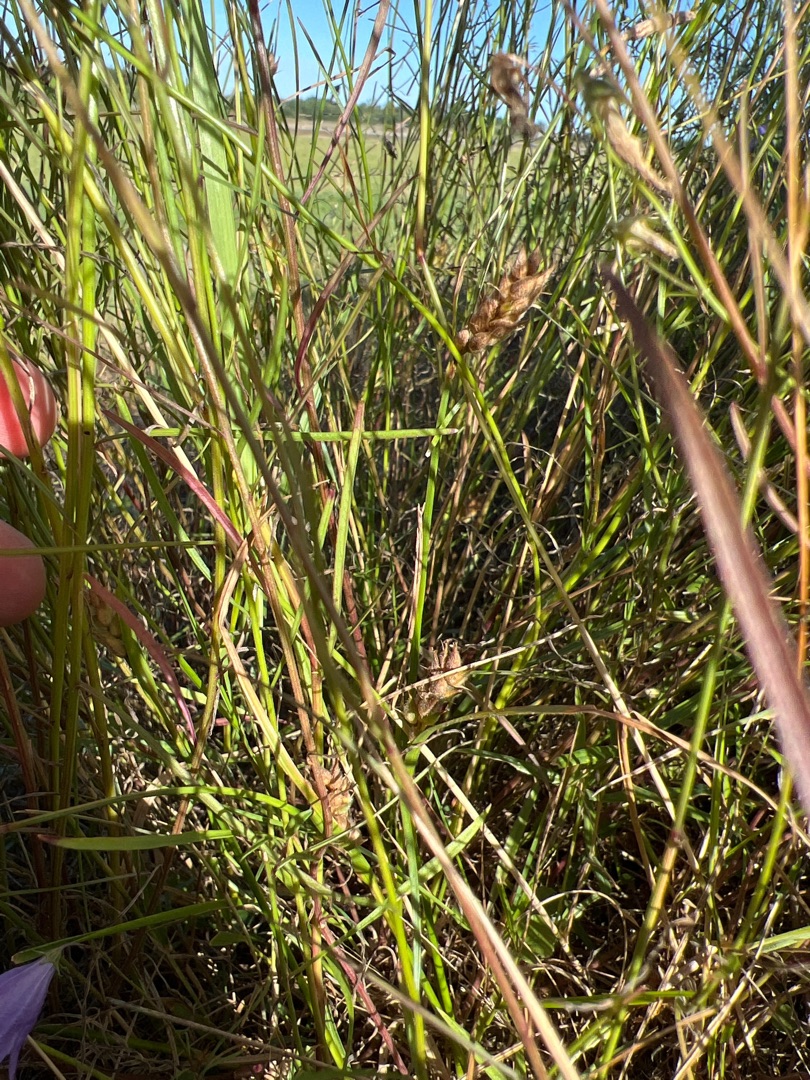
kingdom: Plantae
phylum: Tracheophyta
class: Liliopsida
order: Poales
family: Cyperaceae
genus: Carex
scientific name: Carex hirta
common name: Håret star
